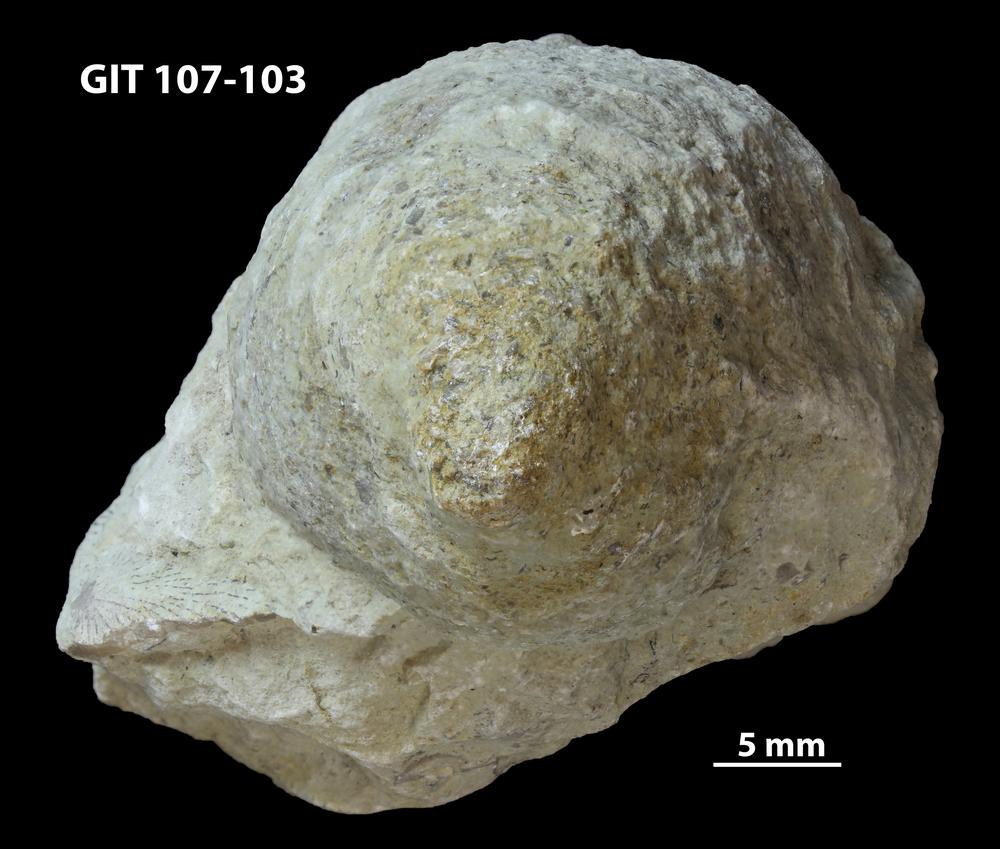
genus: Amphorichnus
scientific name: Amphorichnus
